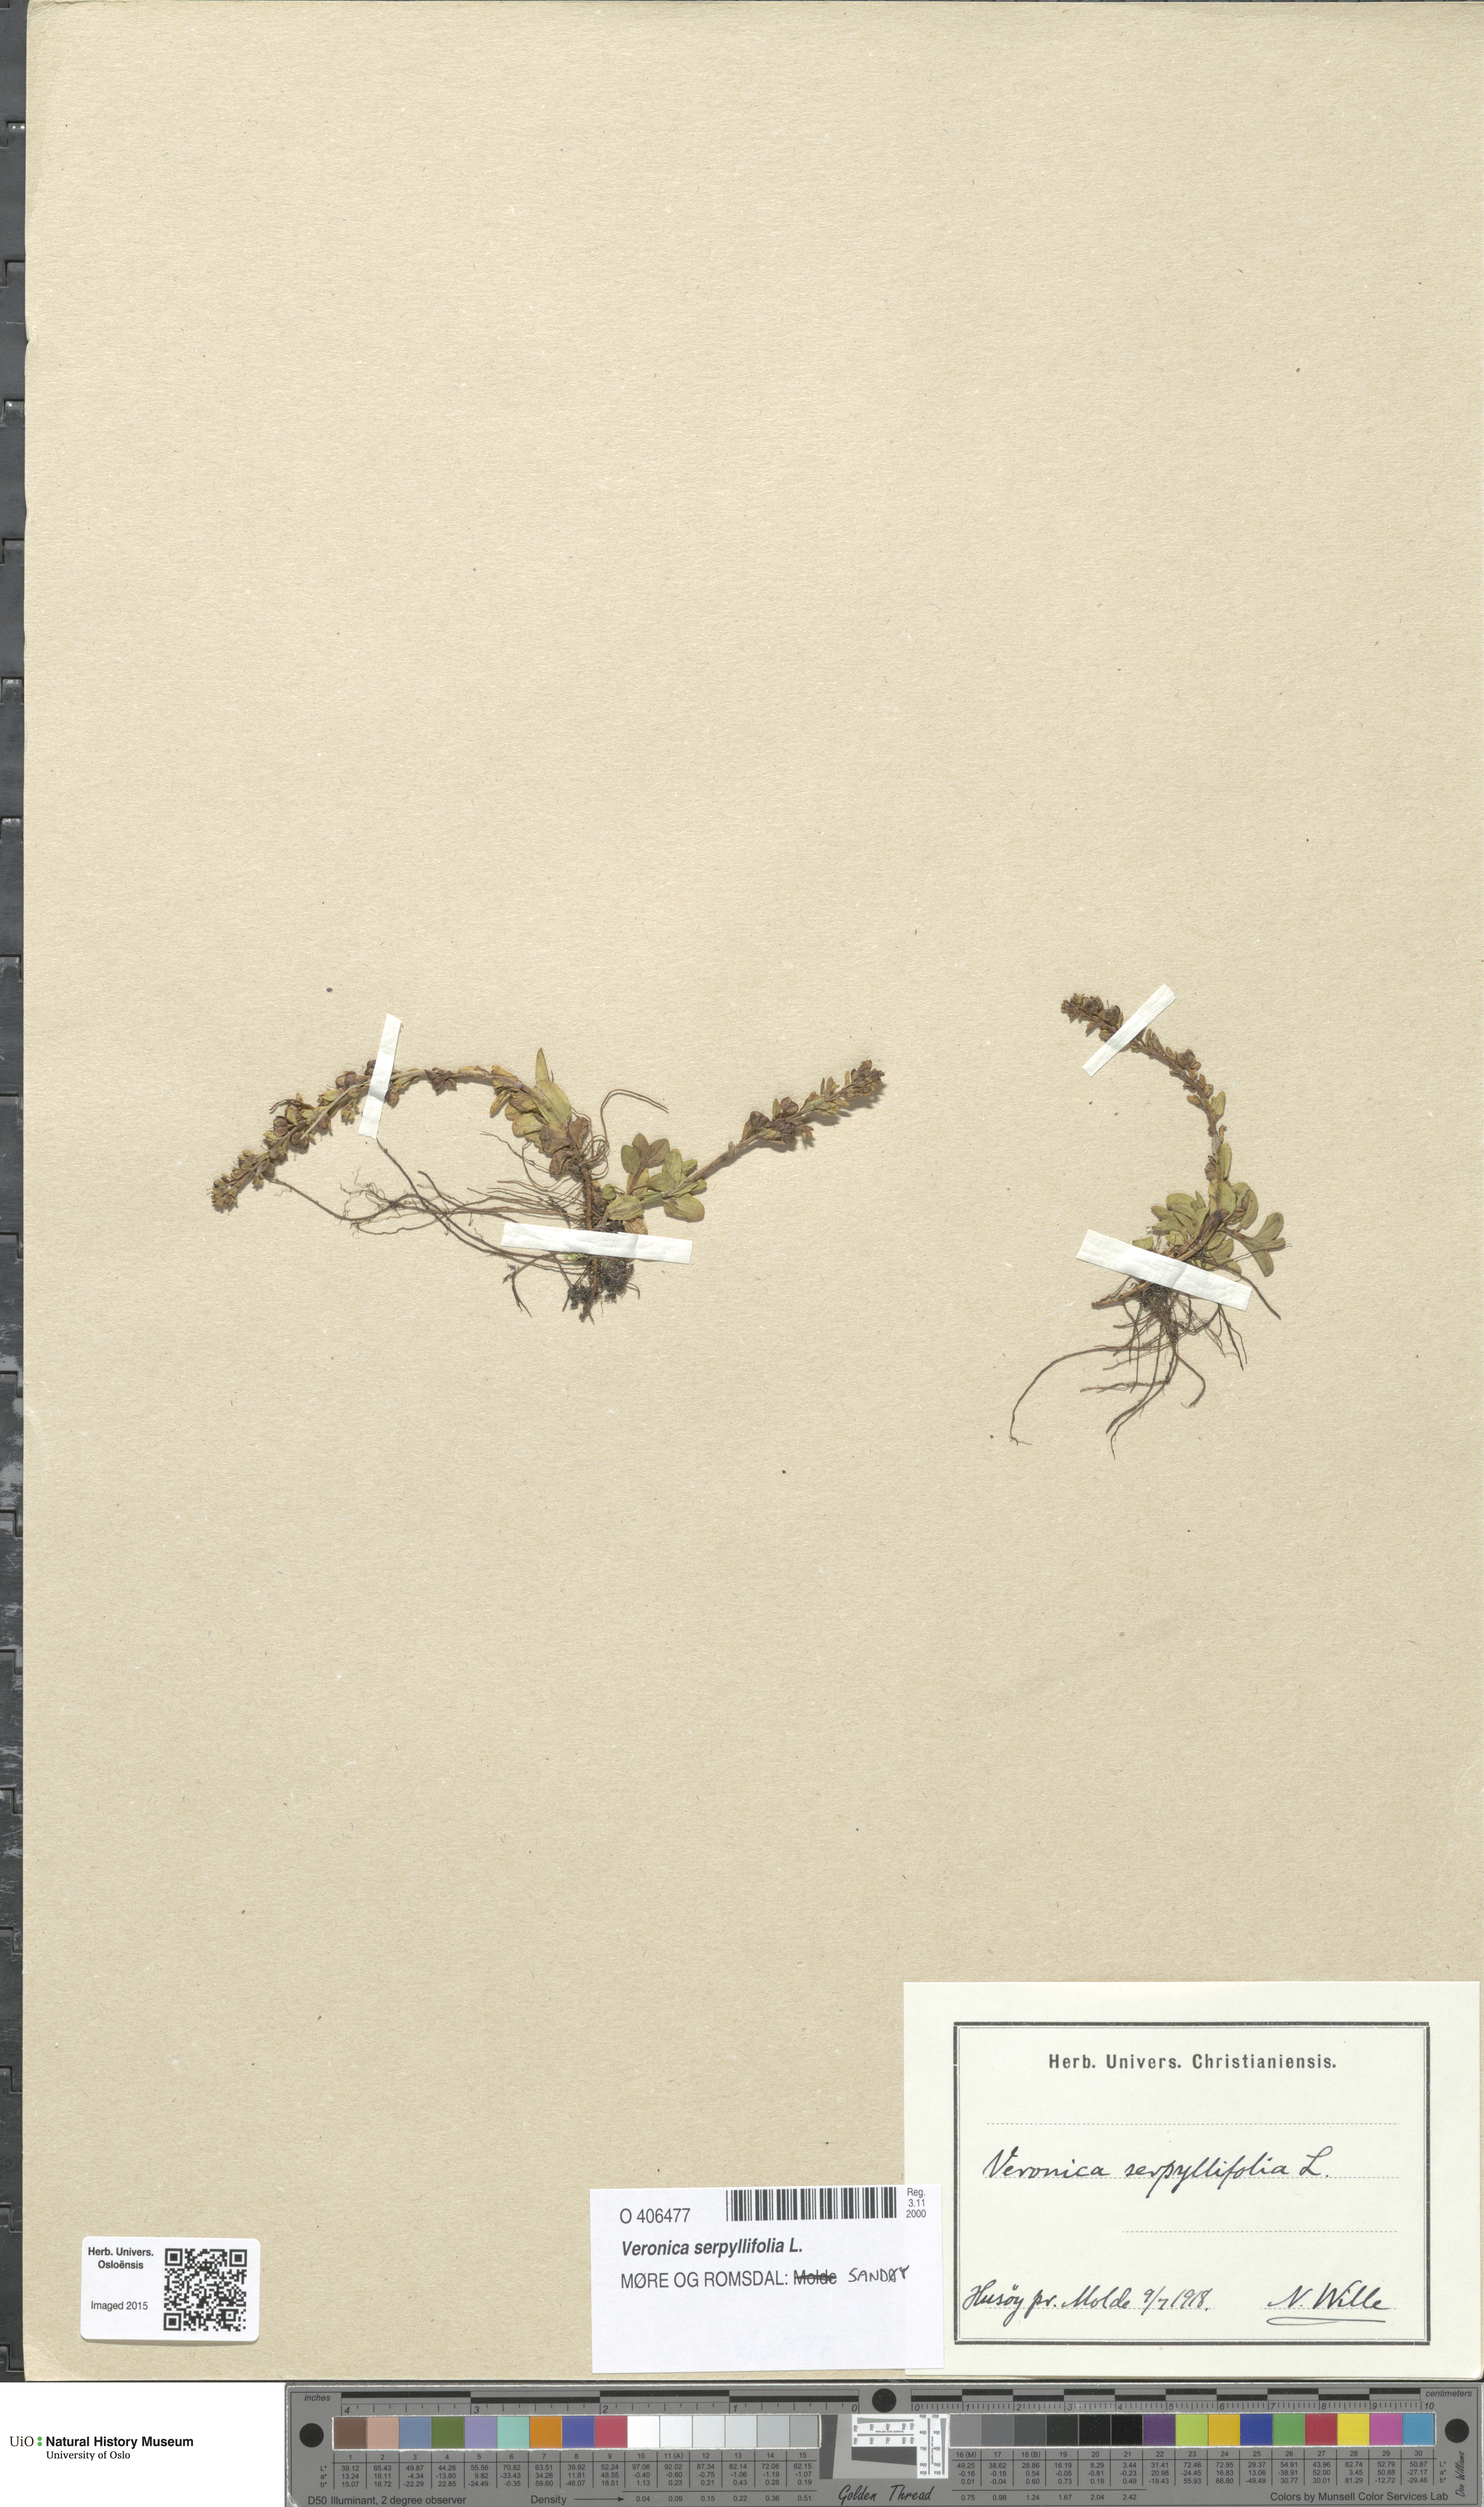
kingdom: Plantae
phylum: Tracheophyta
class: Magnoliopsida
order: Lamiales
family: Plantaginaceae
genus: Veronica
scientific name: Veronica serpyllifolia
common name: Thyme-leaved speedwell
